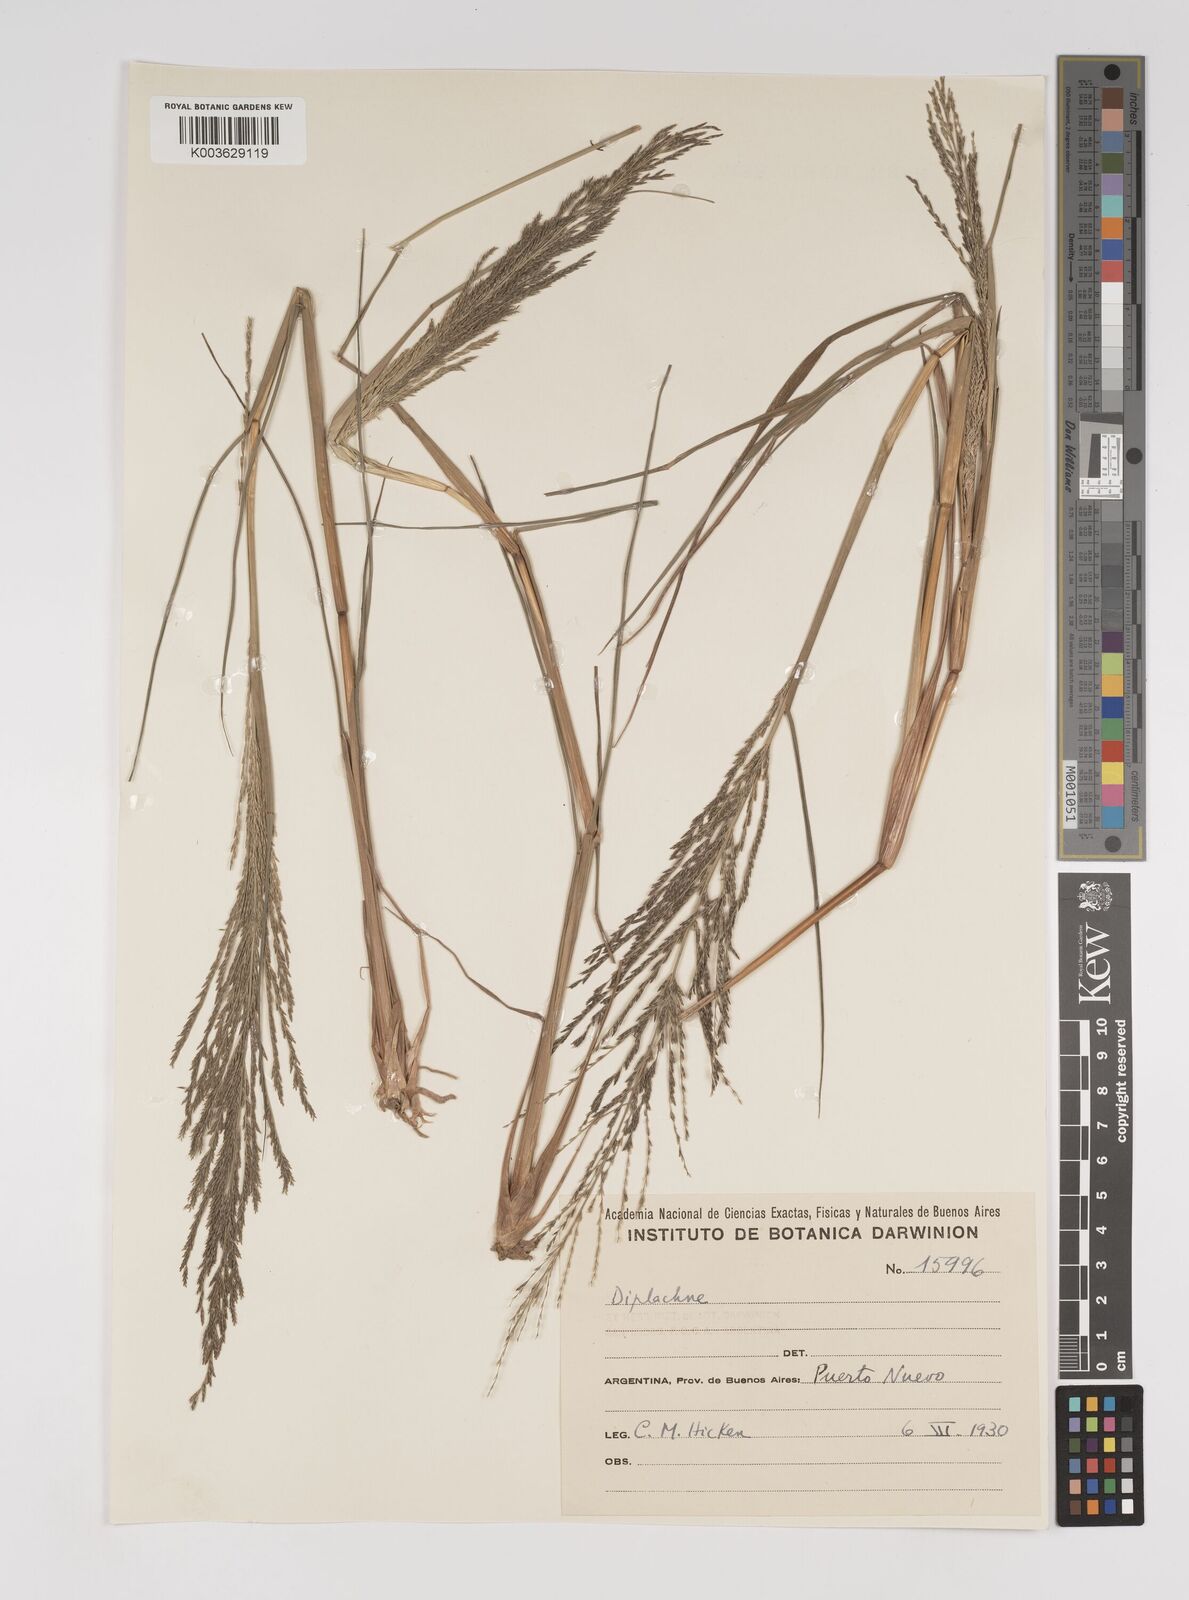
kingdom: Plantae
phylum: Tracheophyta
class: Liliopsida
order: Poales
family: Poaceae
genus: Diplachne
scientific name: Diplachne fusca
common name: Brown beetle grass
